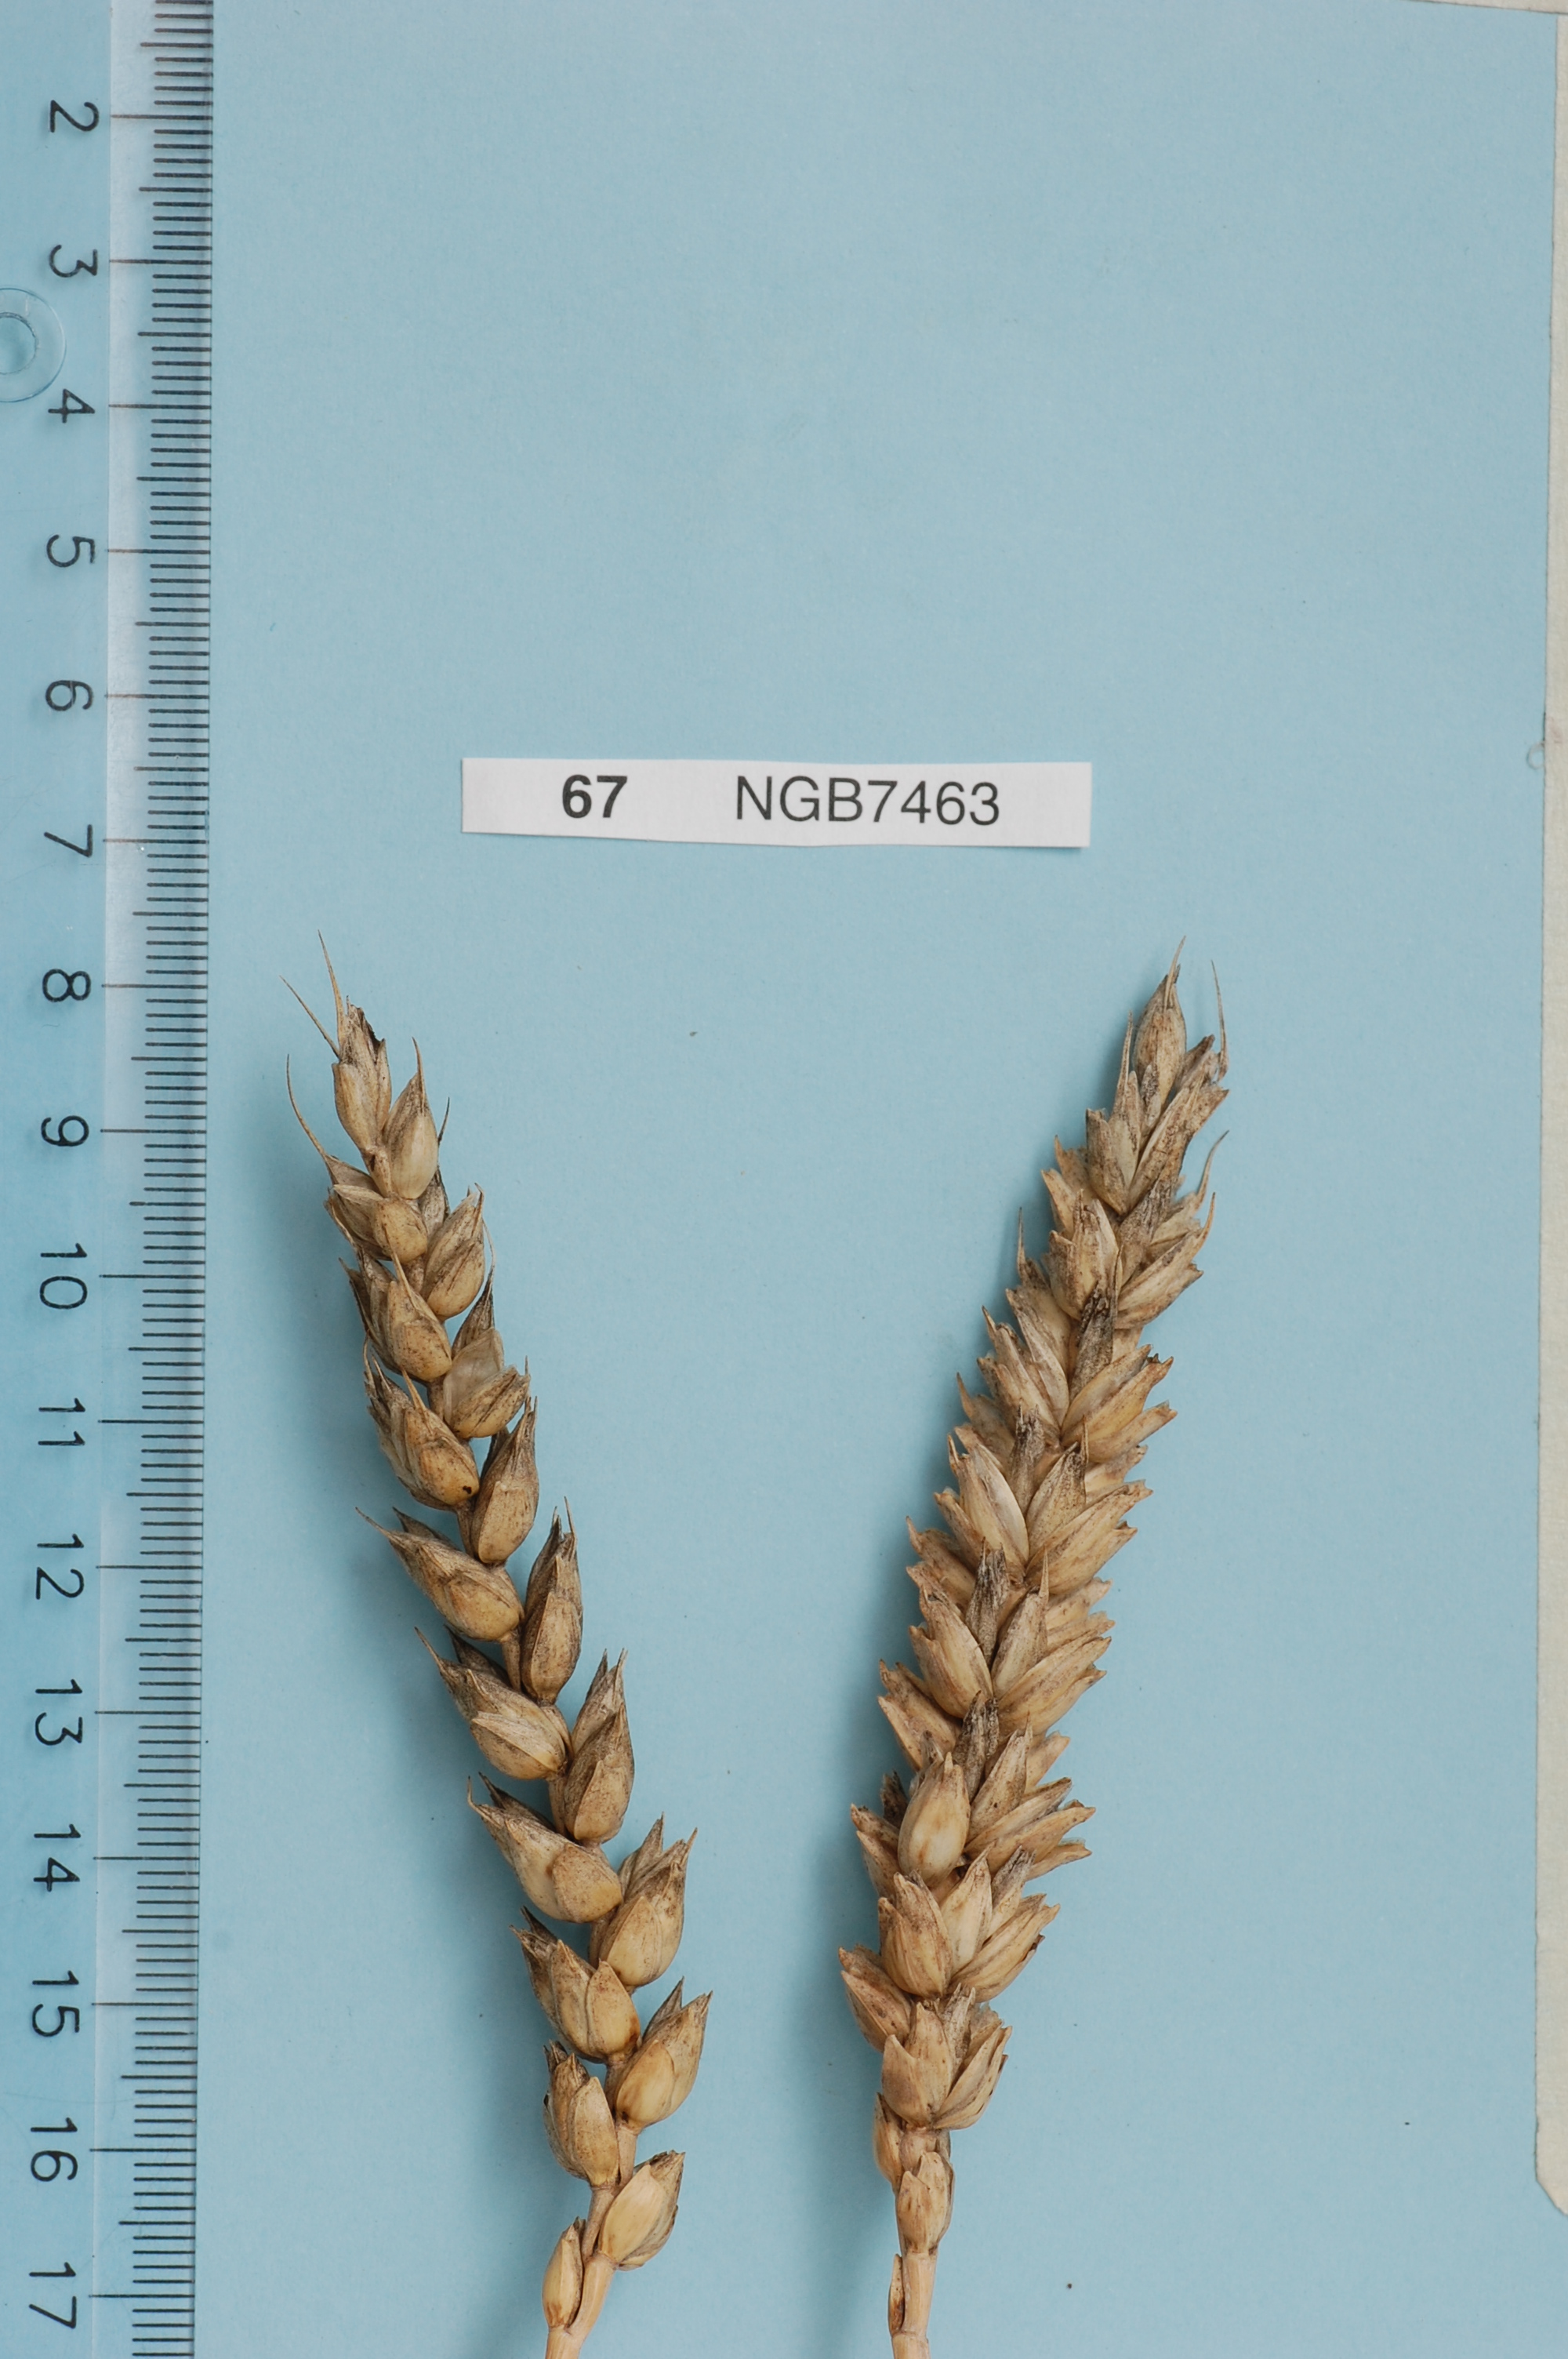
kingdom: Plantae
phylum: Tracheophyta
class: Liliopsida
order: Poales
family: Poaceae
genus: Triticum
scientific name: Triticum aestivum
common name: Common wheat
